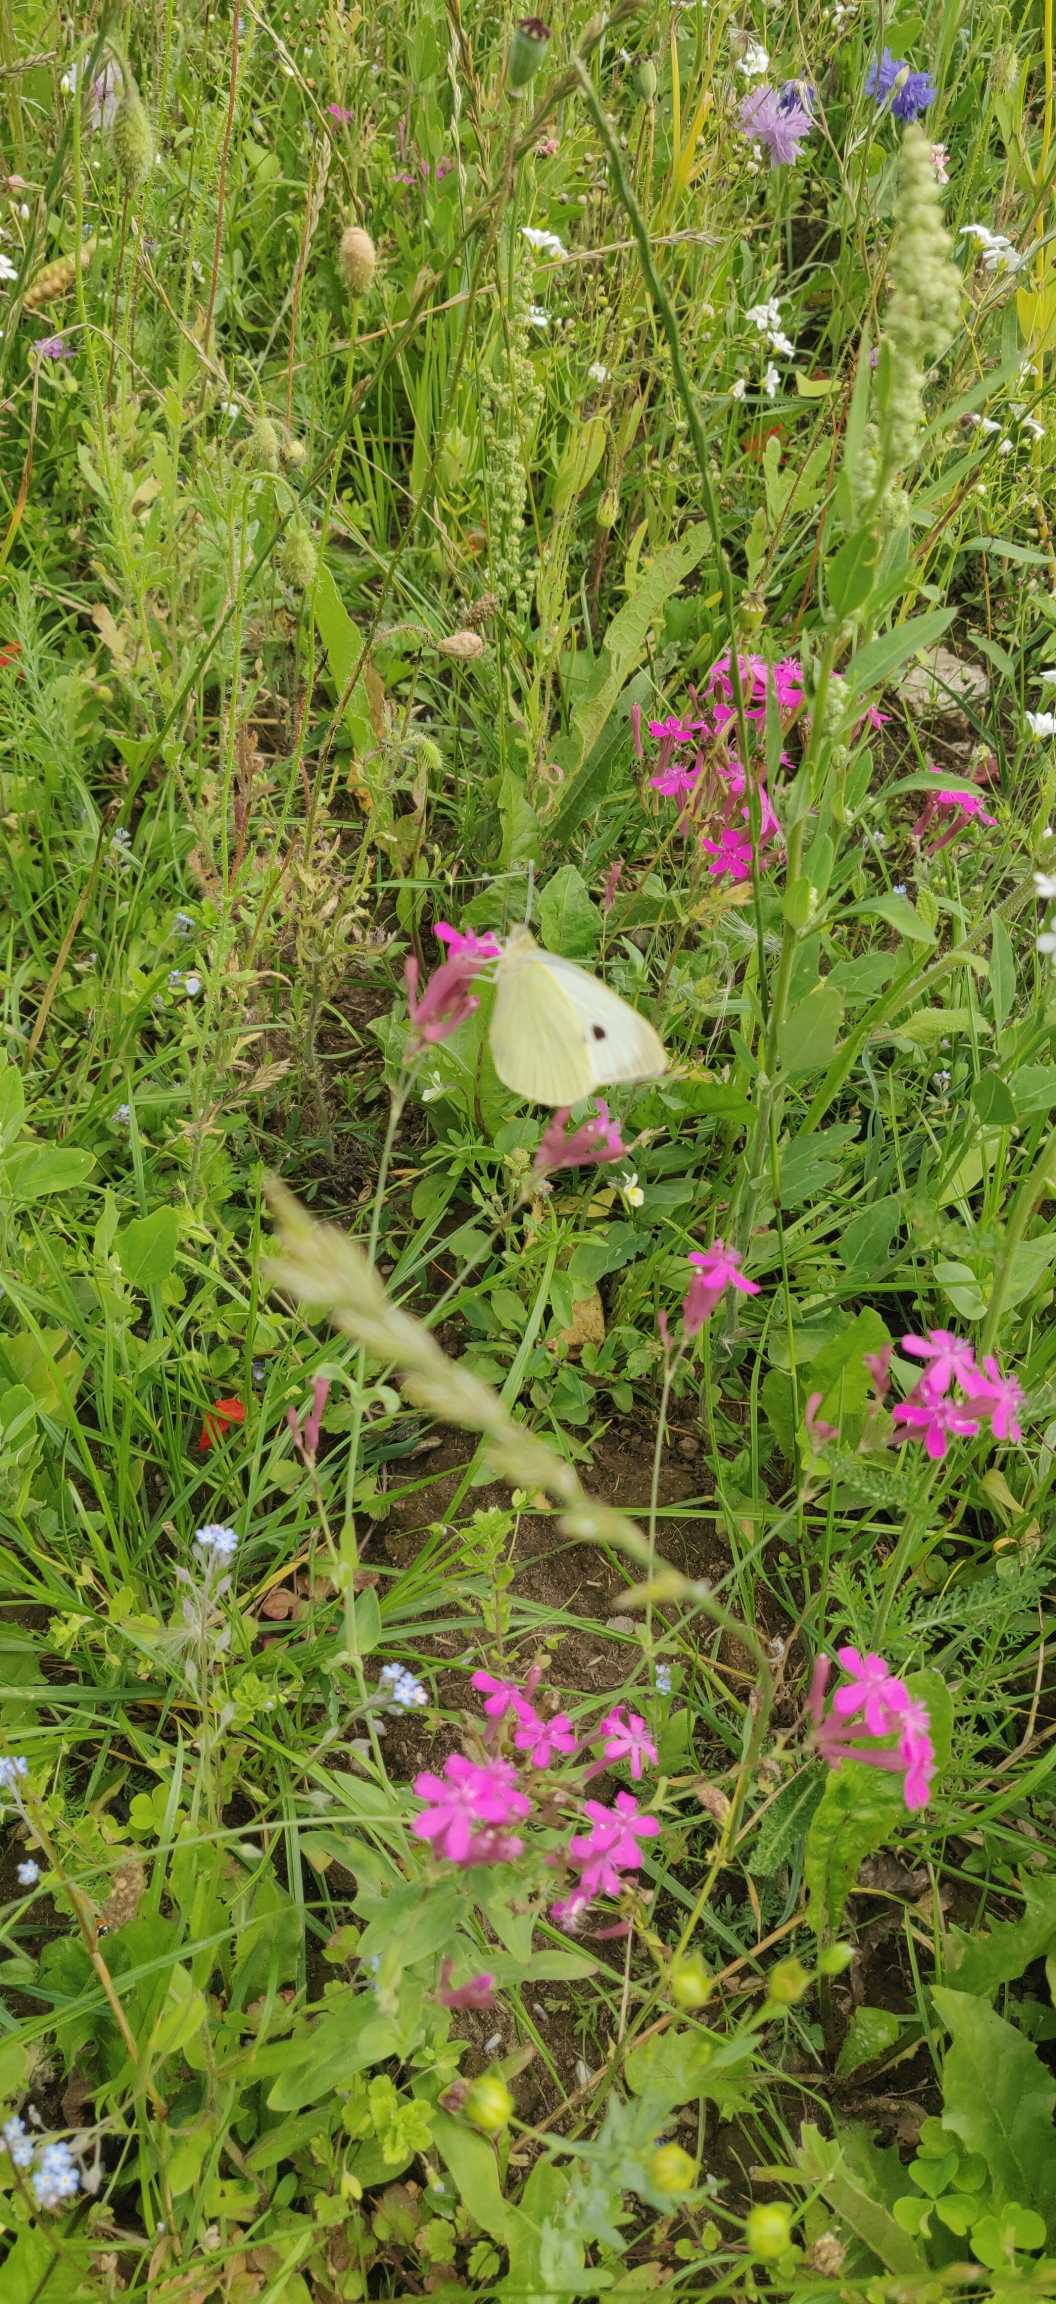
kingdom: Animalia
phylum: Arthropoda
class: Insecta
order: Lepidoptera
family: Pieridae
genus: Pieris
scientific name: Pieris brassicae
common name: Stor kålsommerfugl
